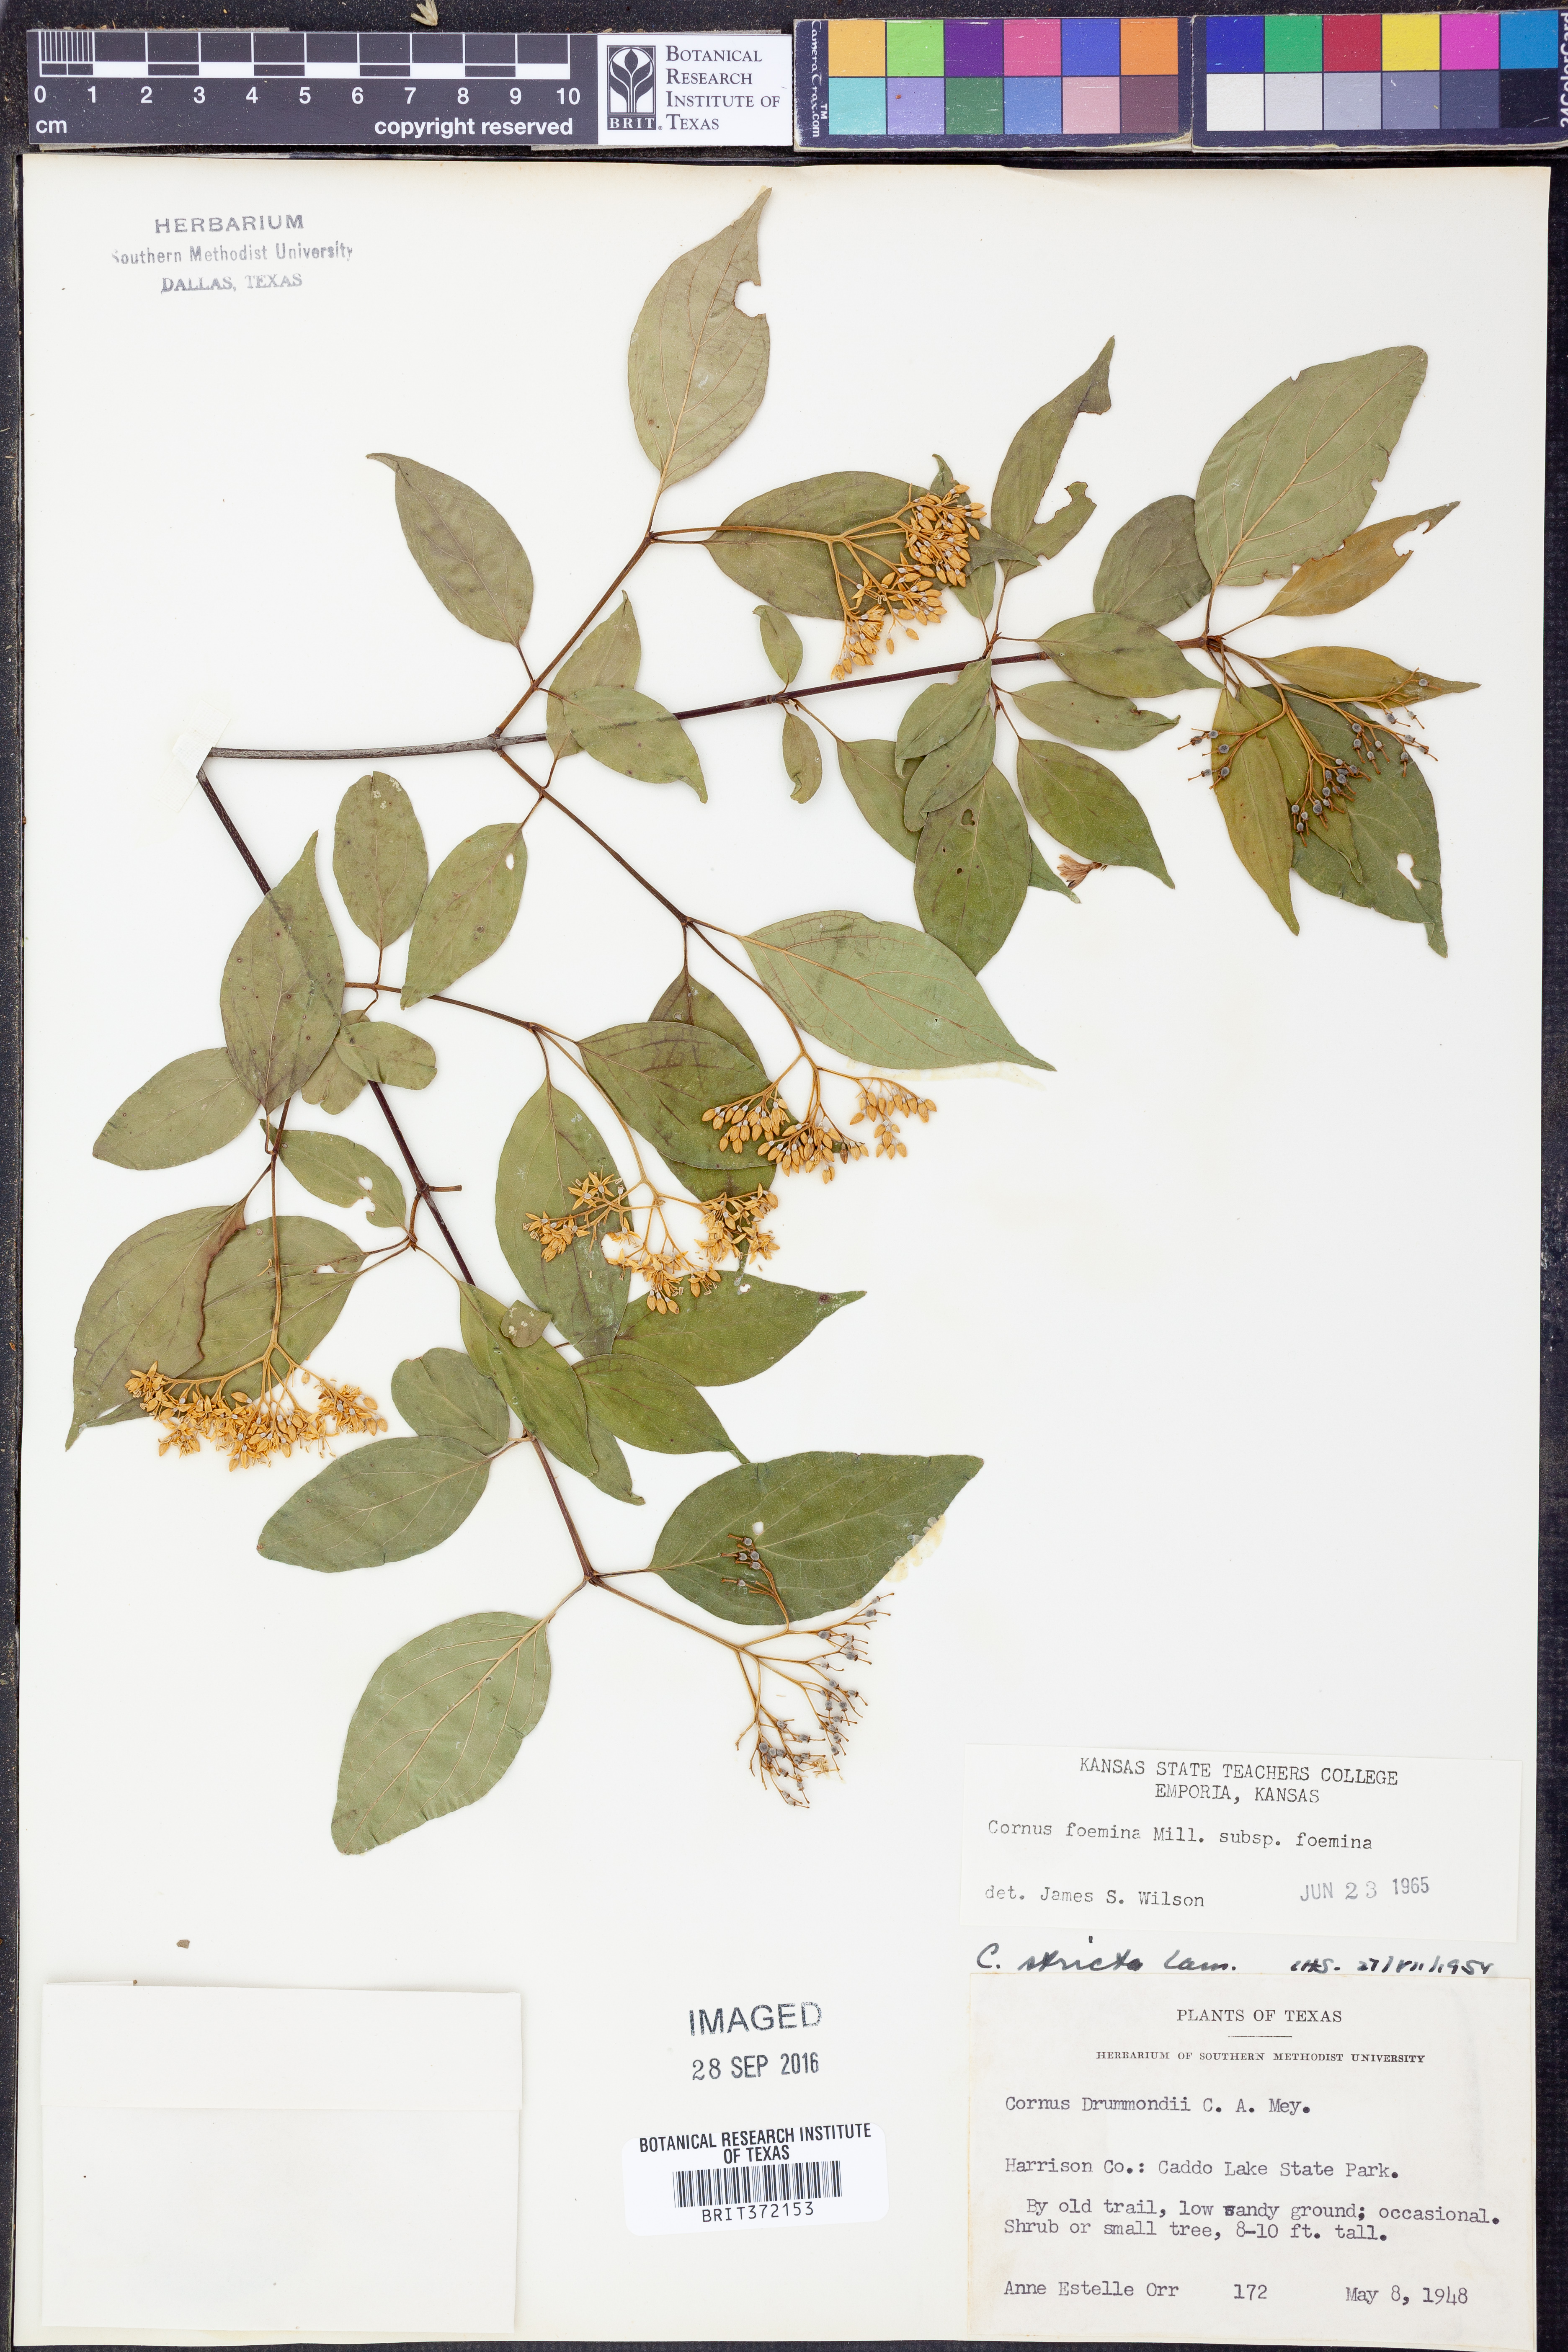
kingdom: Plantae
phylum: Tracheophyta
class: Magnoliopsida
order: Cornales
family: Cornaceae
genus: Cornus
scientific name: Cornus foemina
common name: Swamp dogwood
